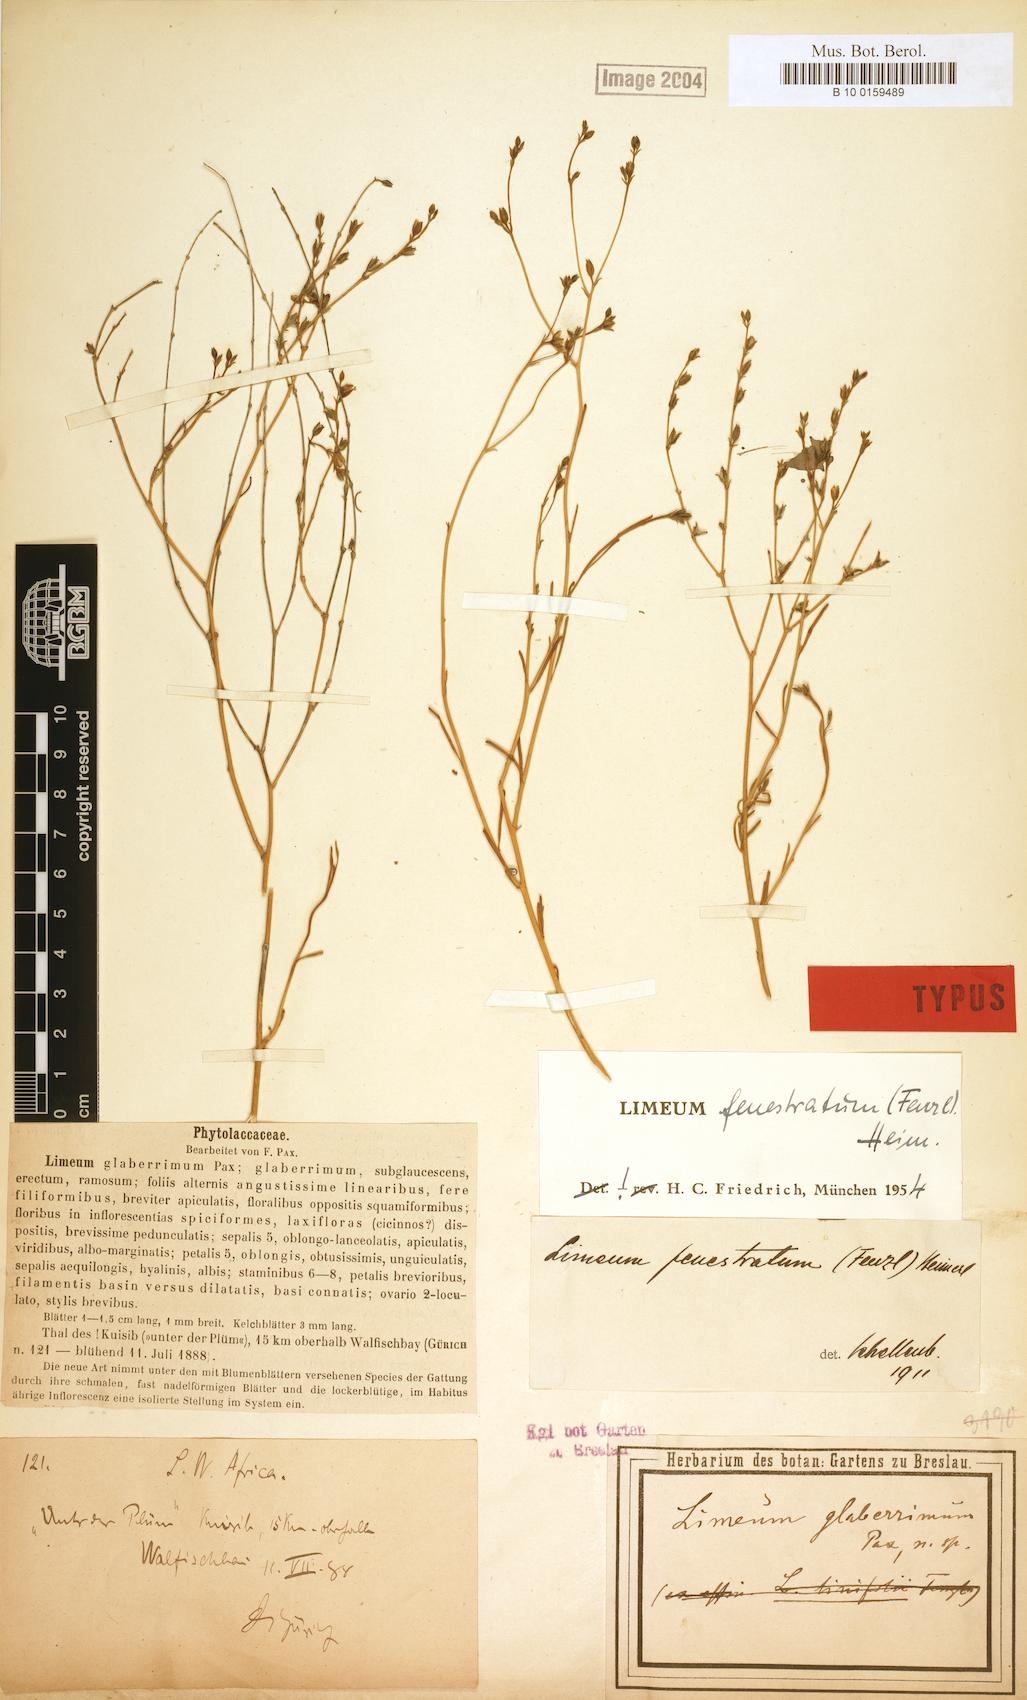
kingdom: Plantae
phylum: Tracheophyta
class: Magnoliopsida
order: Caryophyllales
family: Limeaceae
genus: Limeum
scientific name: Limeum fenestratum
